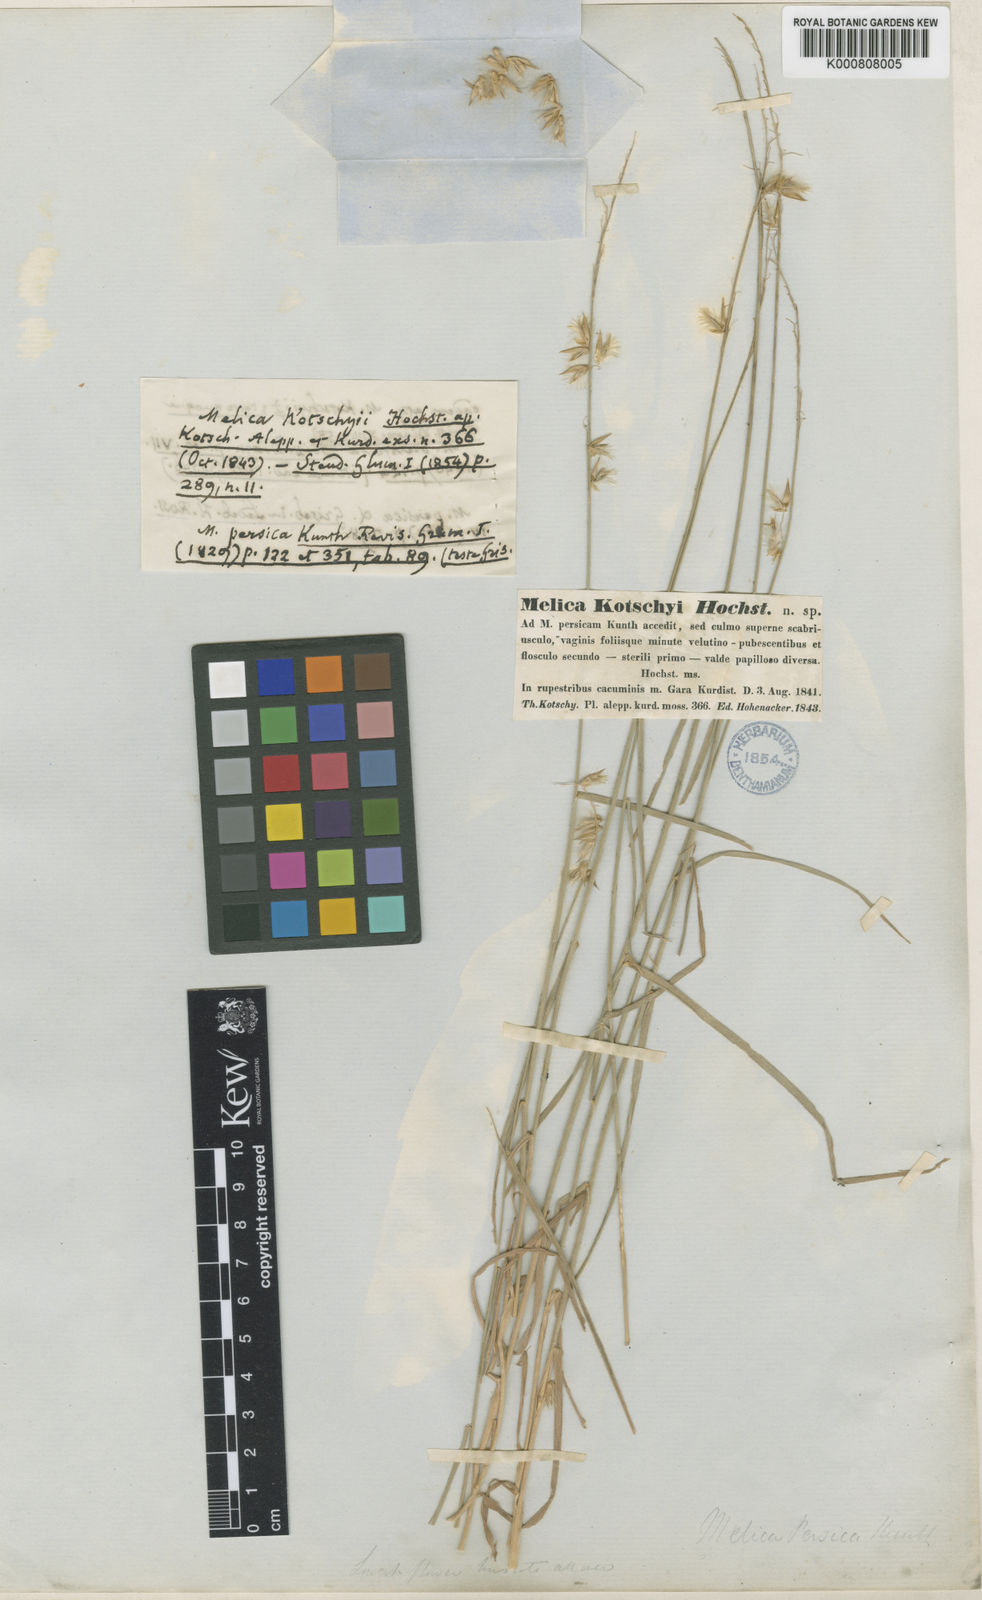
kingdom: Plantae
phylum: Tracheophyta
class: Liliopsida
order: Poales
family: Poaceae
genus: Melica
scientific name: Melica persica
